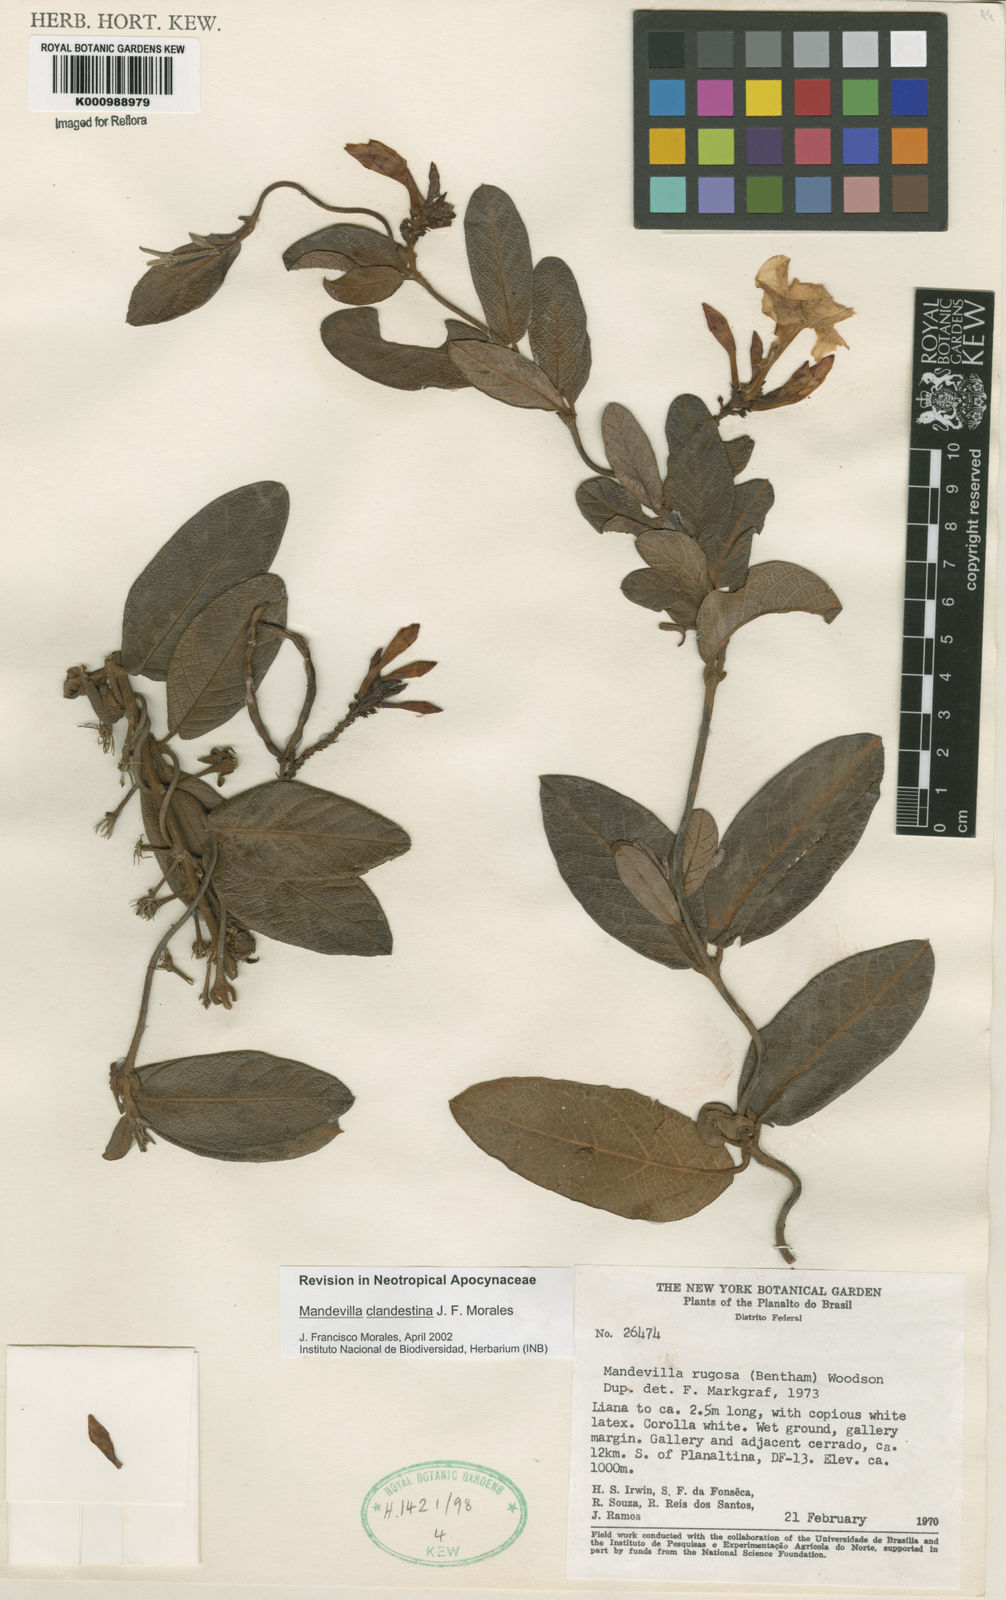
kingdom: Plantae
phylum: Tracheophyta
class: Magnoliopsida
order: Gentianales
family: Apocynaceae
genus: Mandevilla
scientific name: Mandevilla clandestina
